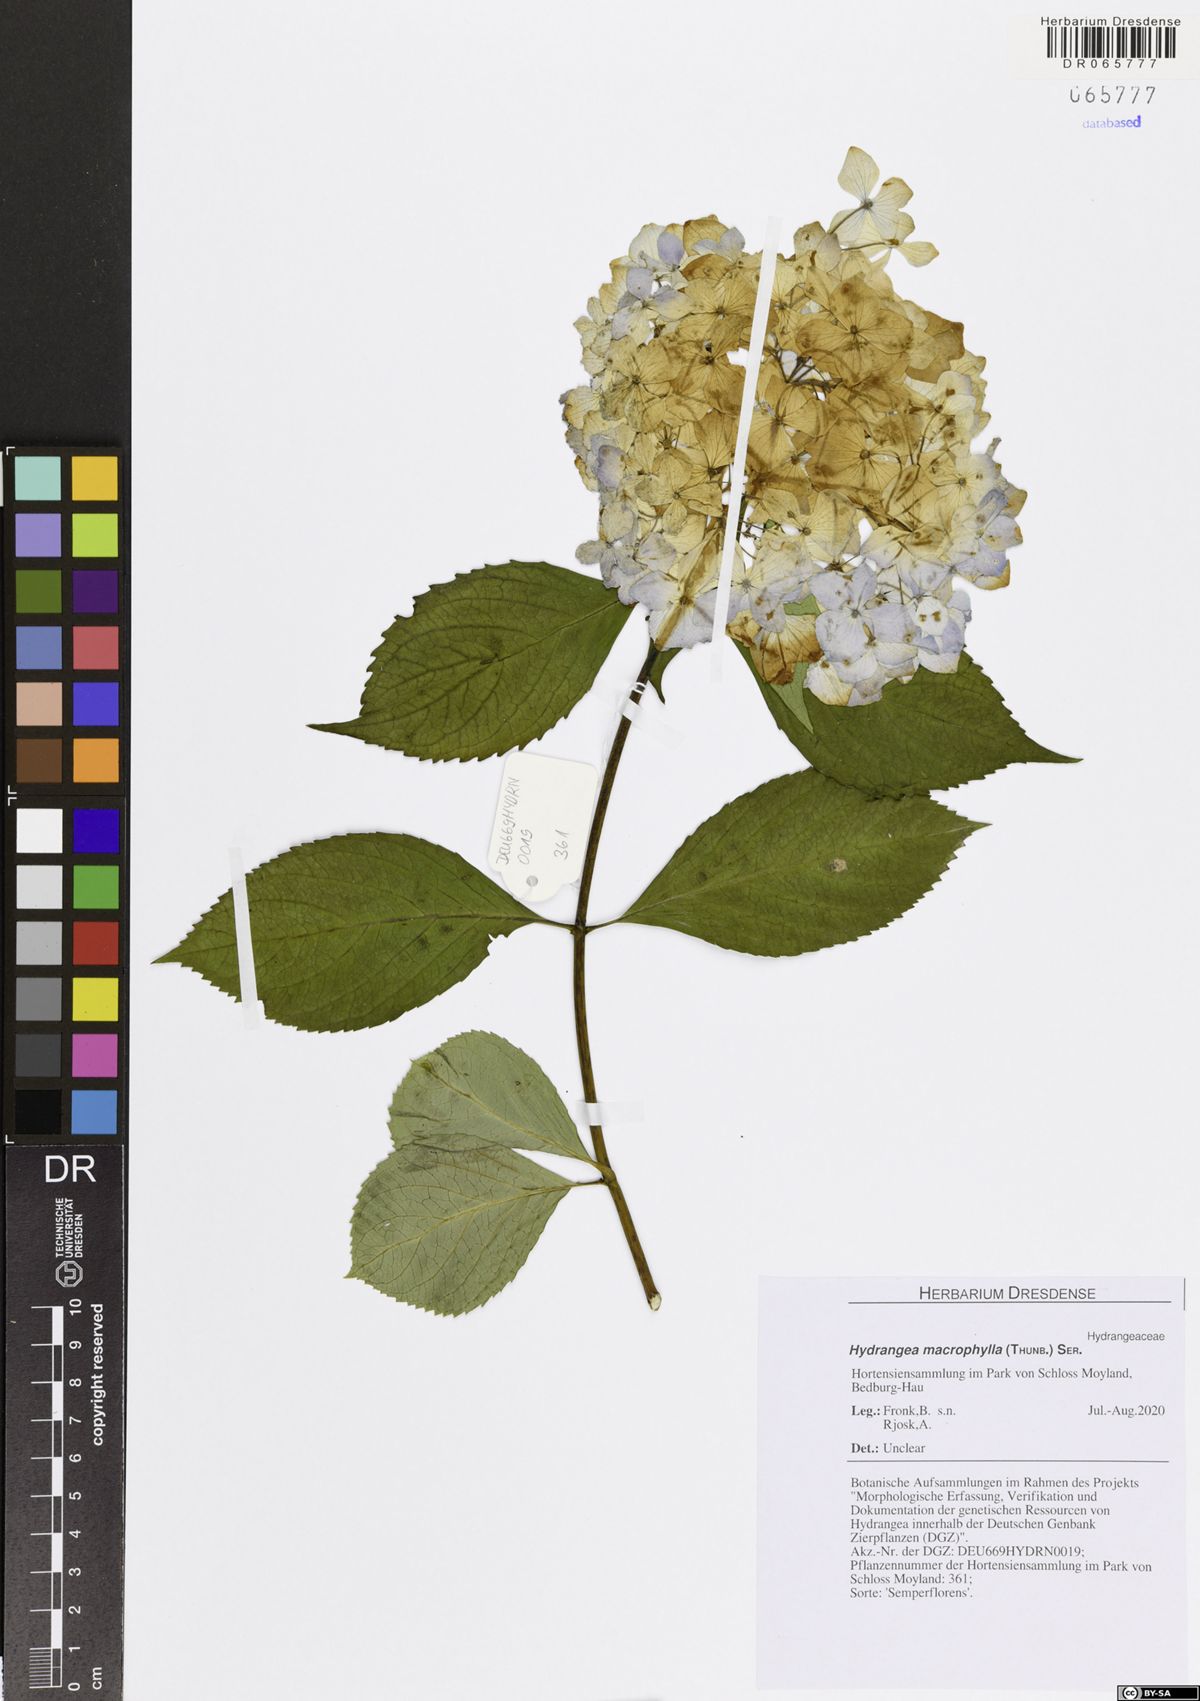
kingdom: Plantae
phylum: Tracheophyta
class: Magnoliopsida
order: Cornales
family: Hydrangeaceae
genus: Hydrangea
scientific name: Hydrangea macrophylla
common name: Hydrangea
